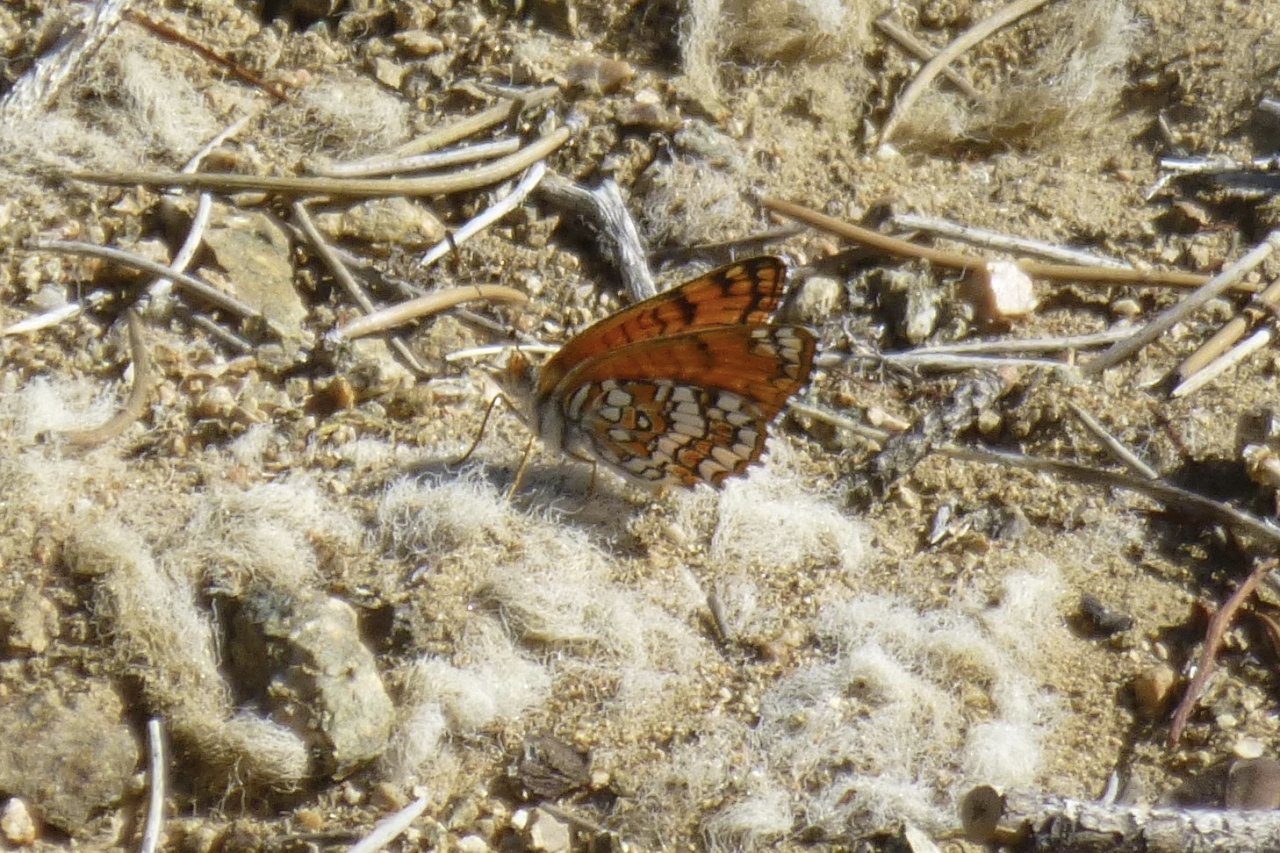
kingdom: Animalia
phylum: Arthropoda
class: Insecta
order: Lepidoptera
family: Nymphalidae
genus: Chlosyne
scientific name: Chlosyne acastus
